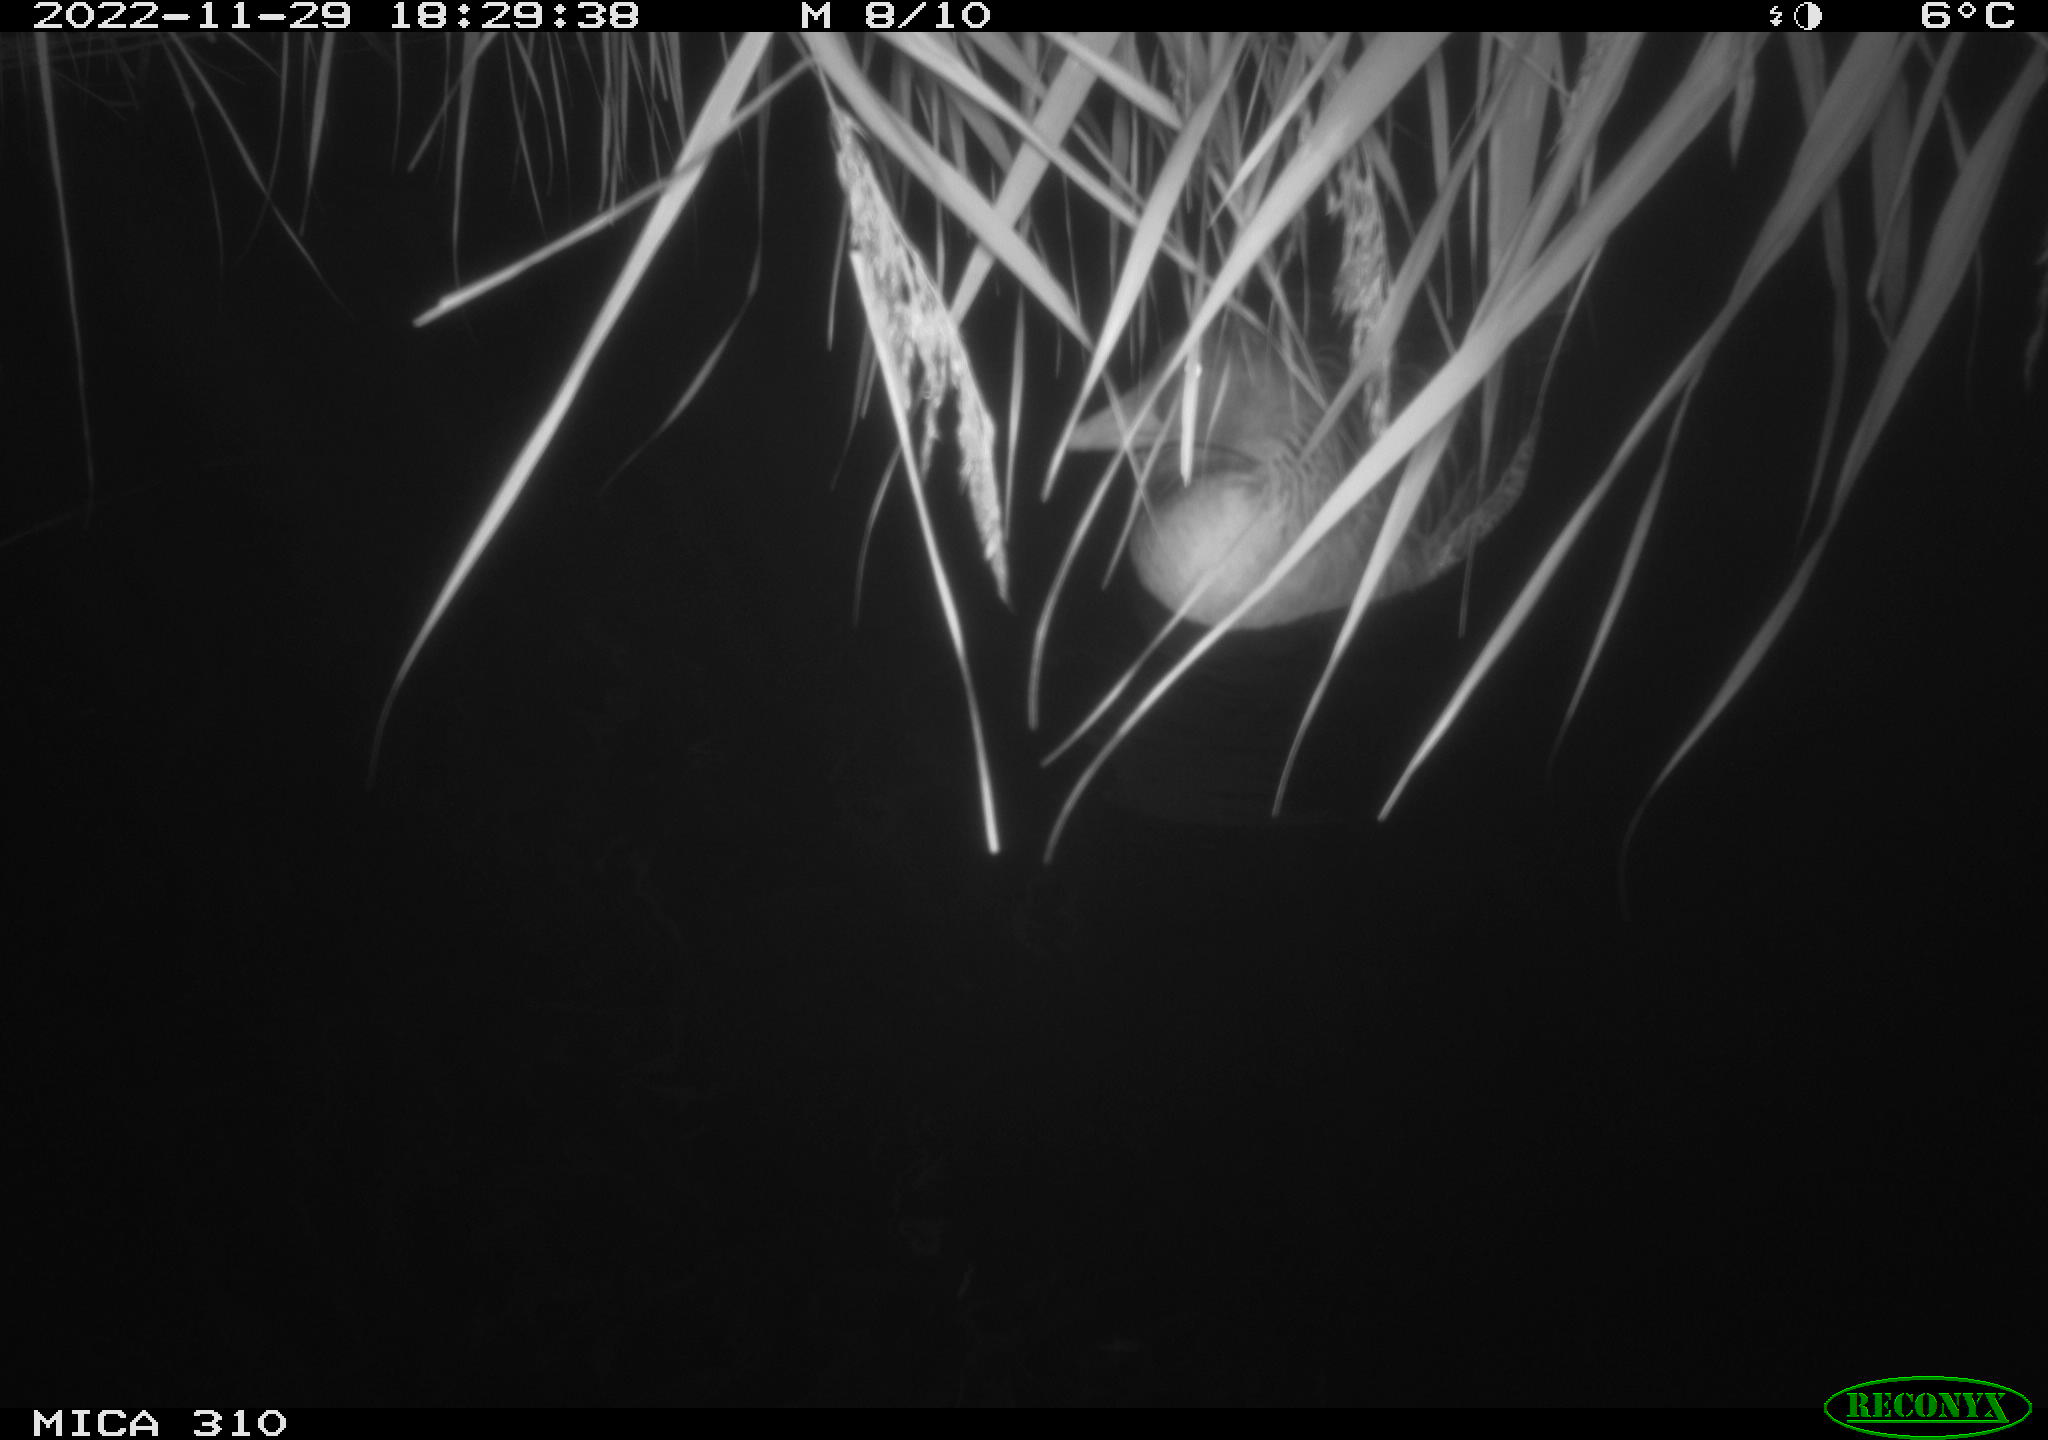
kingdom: Animalia
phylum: Chordata
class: Aves
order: Anseriformes
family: Anatidae
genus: Anser
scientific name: Anser anser
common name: Greylag goose
